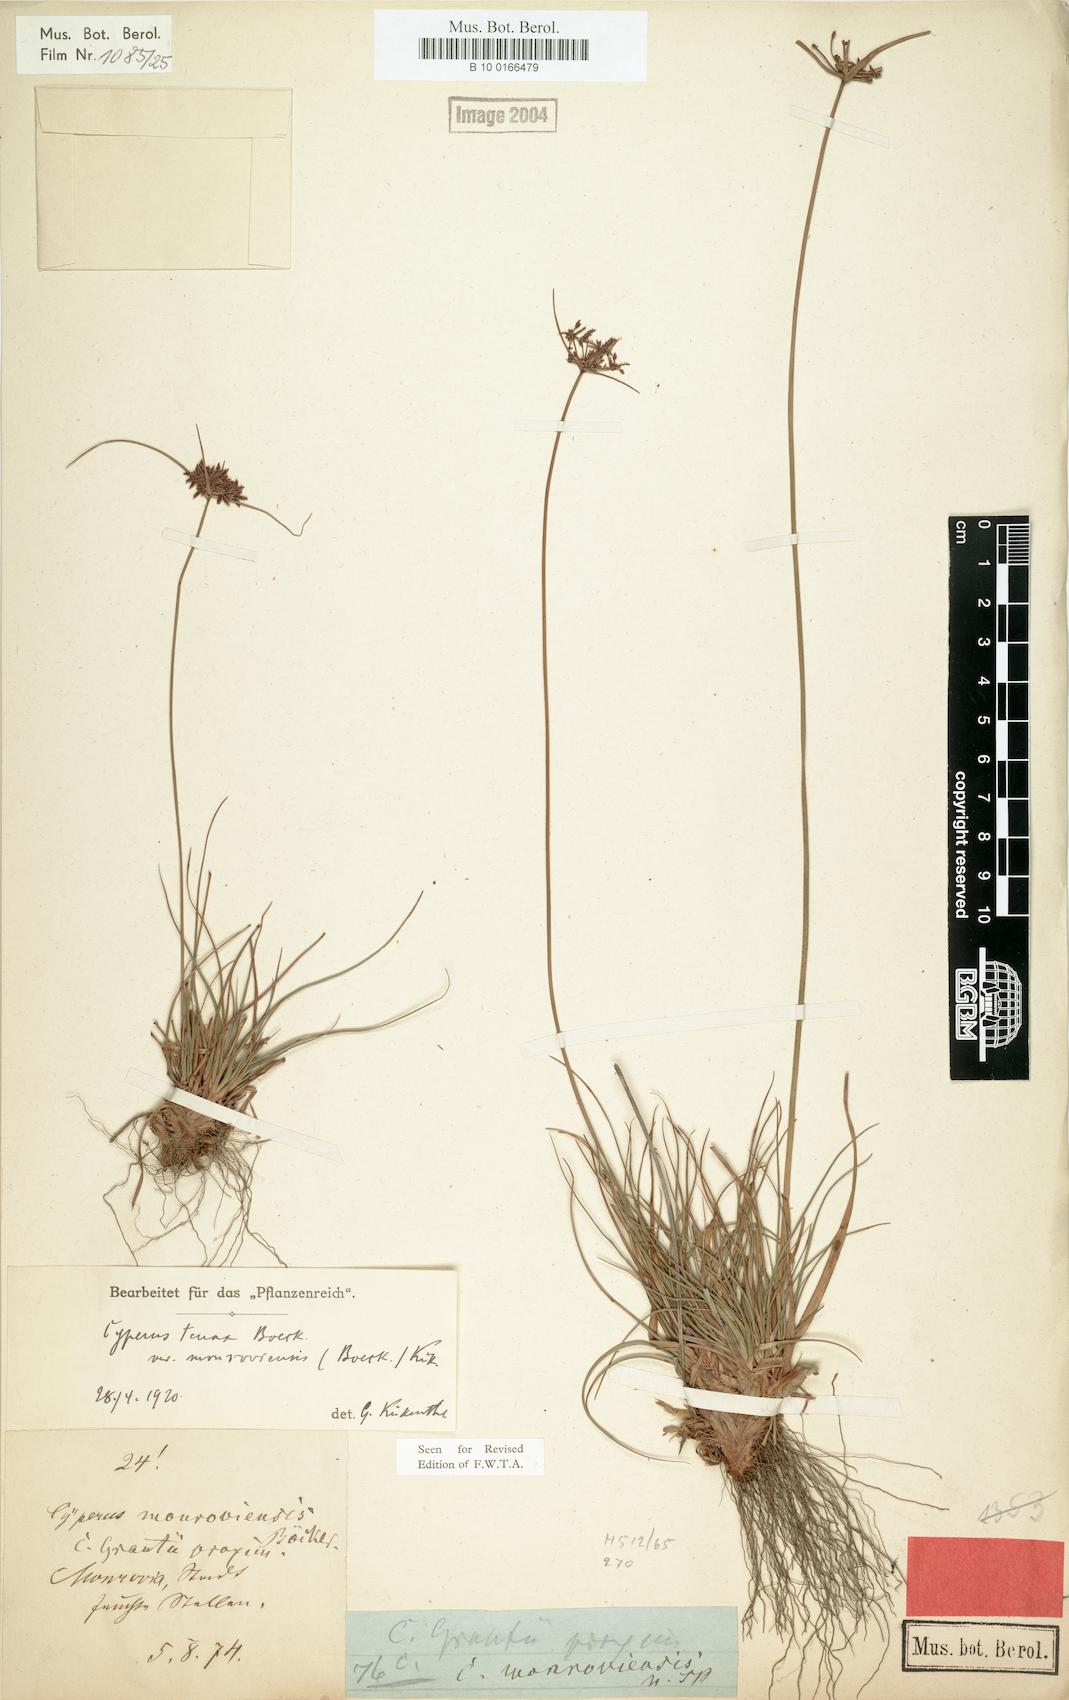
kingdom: Plantae
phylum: Tracheophyta
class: Liliopsida
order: Poales
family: Cyperaceae
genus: Cyperus
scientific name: Cyperus tenax
